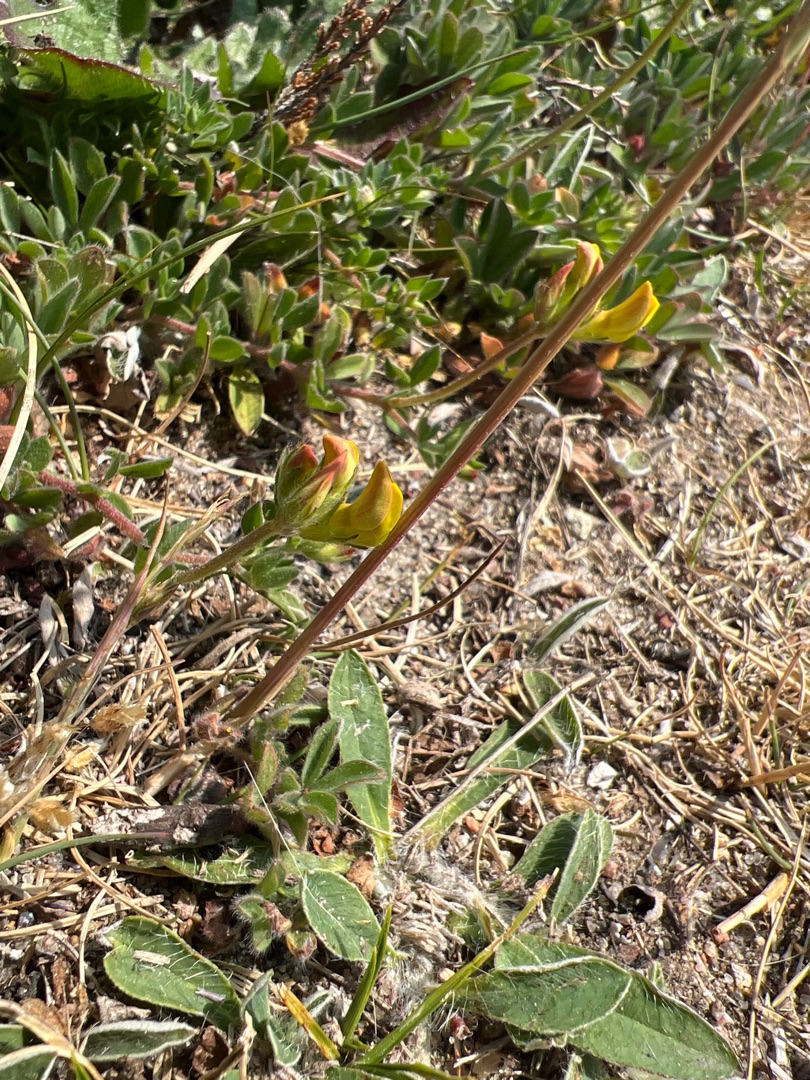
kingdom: Plantae
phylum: Tracheophyta
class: Magnoliopsida
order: Fabales
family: Fabaceae
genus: Lotus
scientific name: Lotus corniculatus
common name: Almindelig kællingetand
